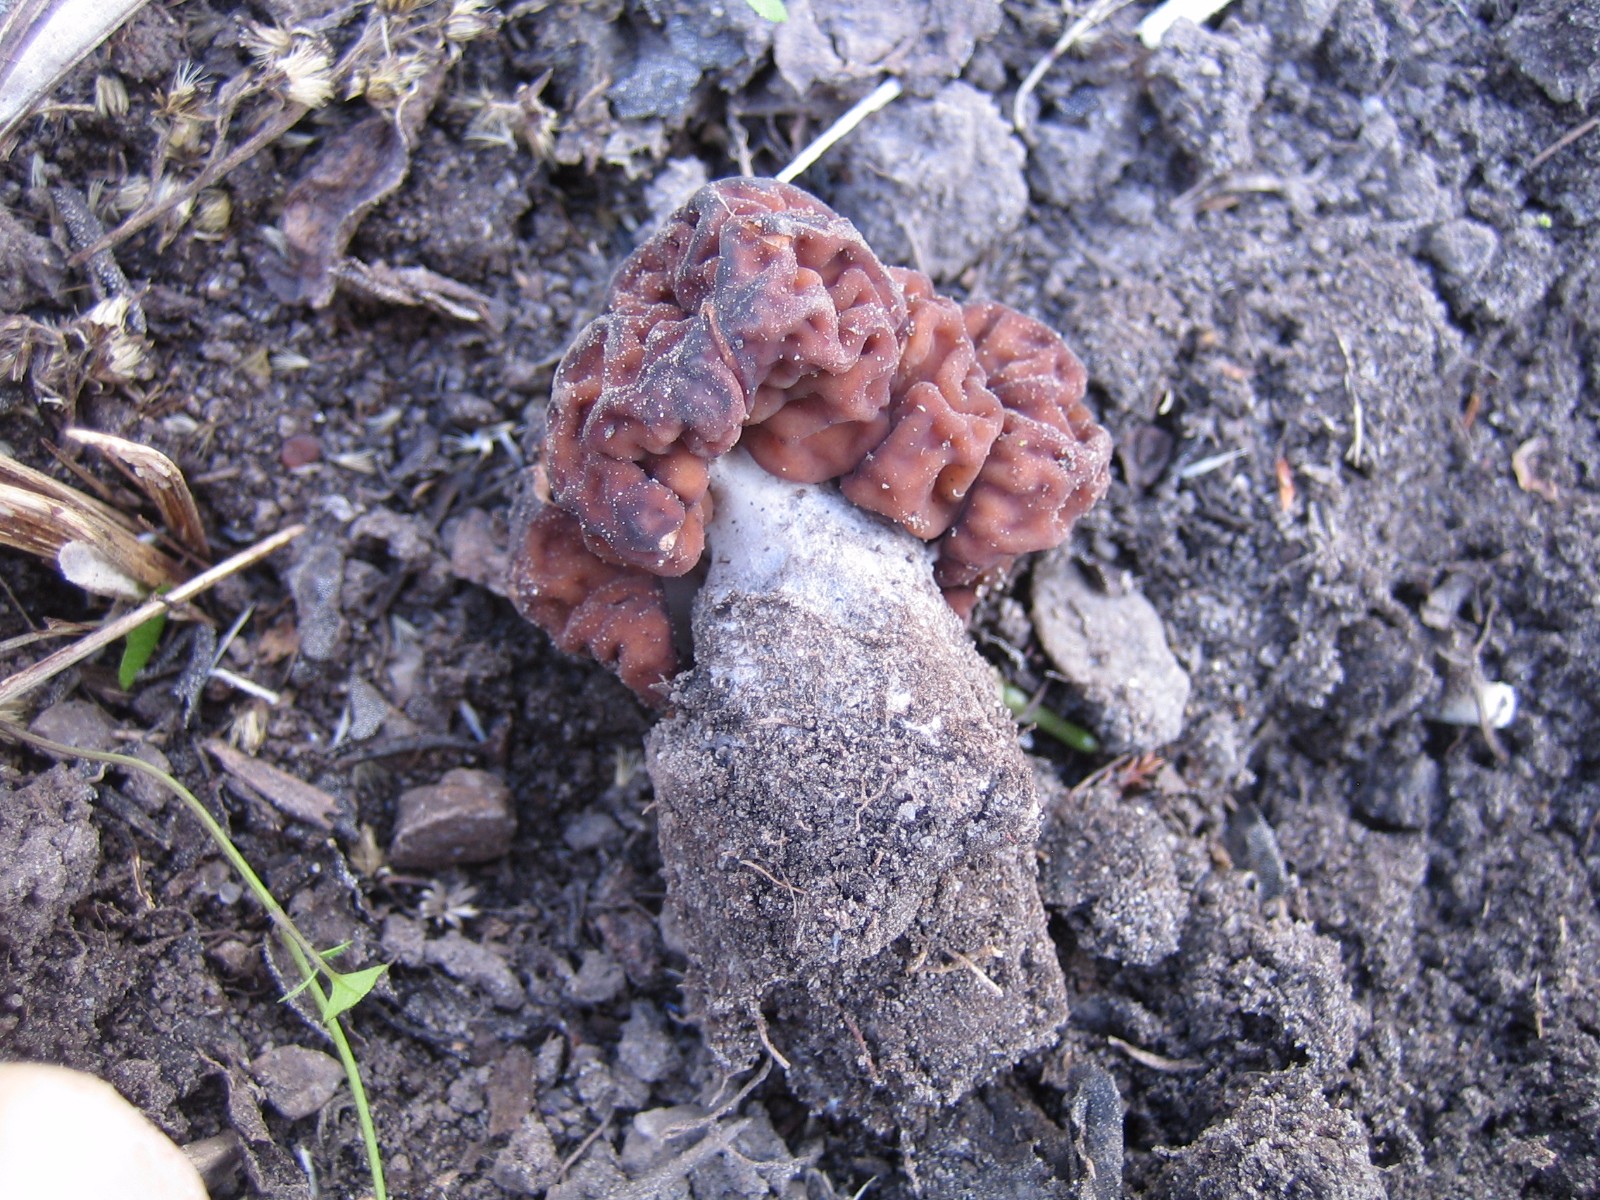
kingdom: Fungi
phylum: Ascomycota
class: Pezizomycetes
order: Pezizales
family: Discinaceae
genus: Gyromitra
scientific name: Gyromitra esculenta
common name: ægte stenmorkel
